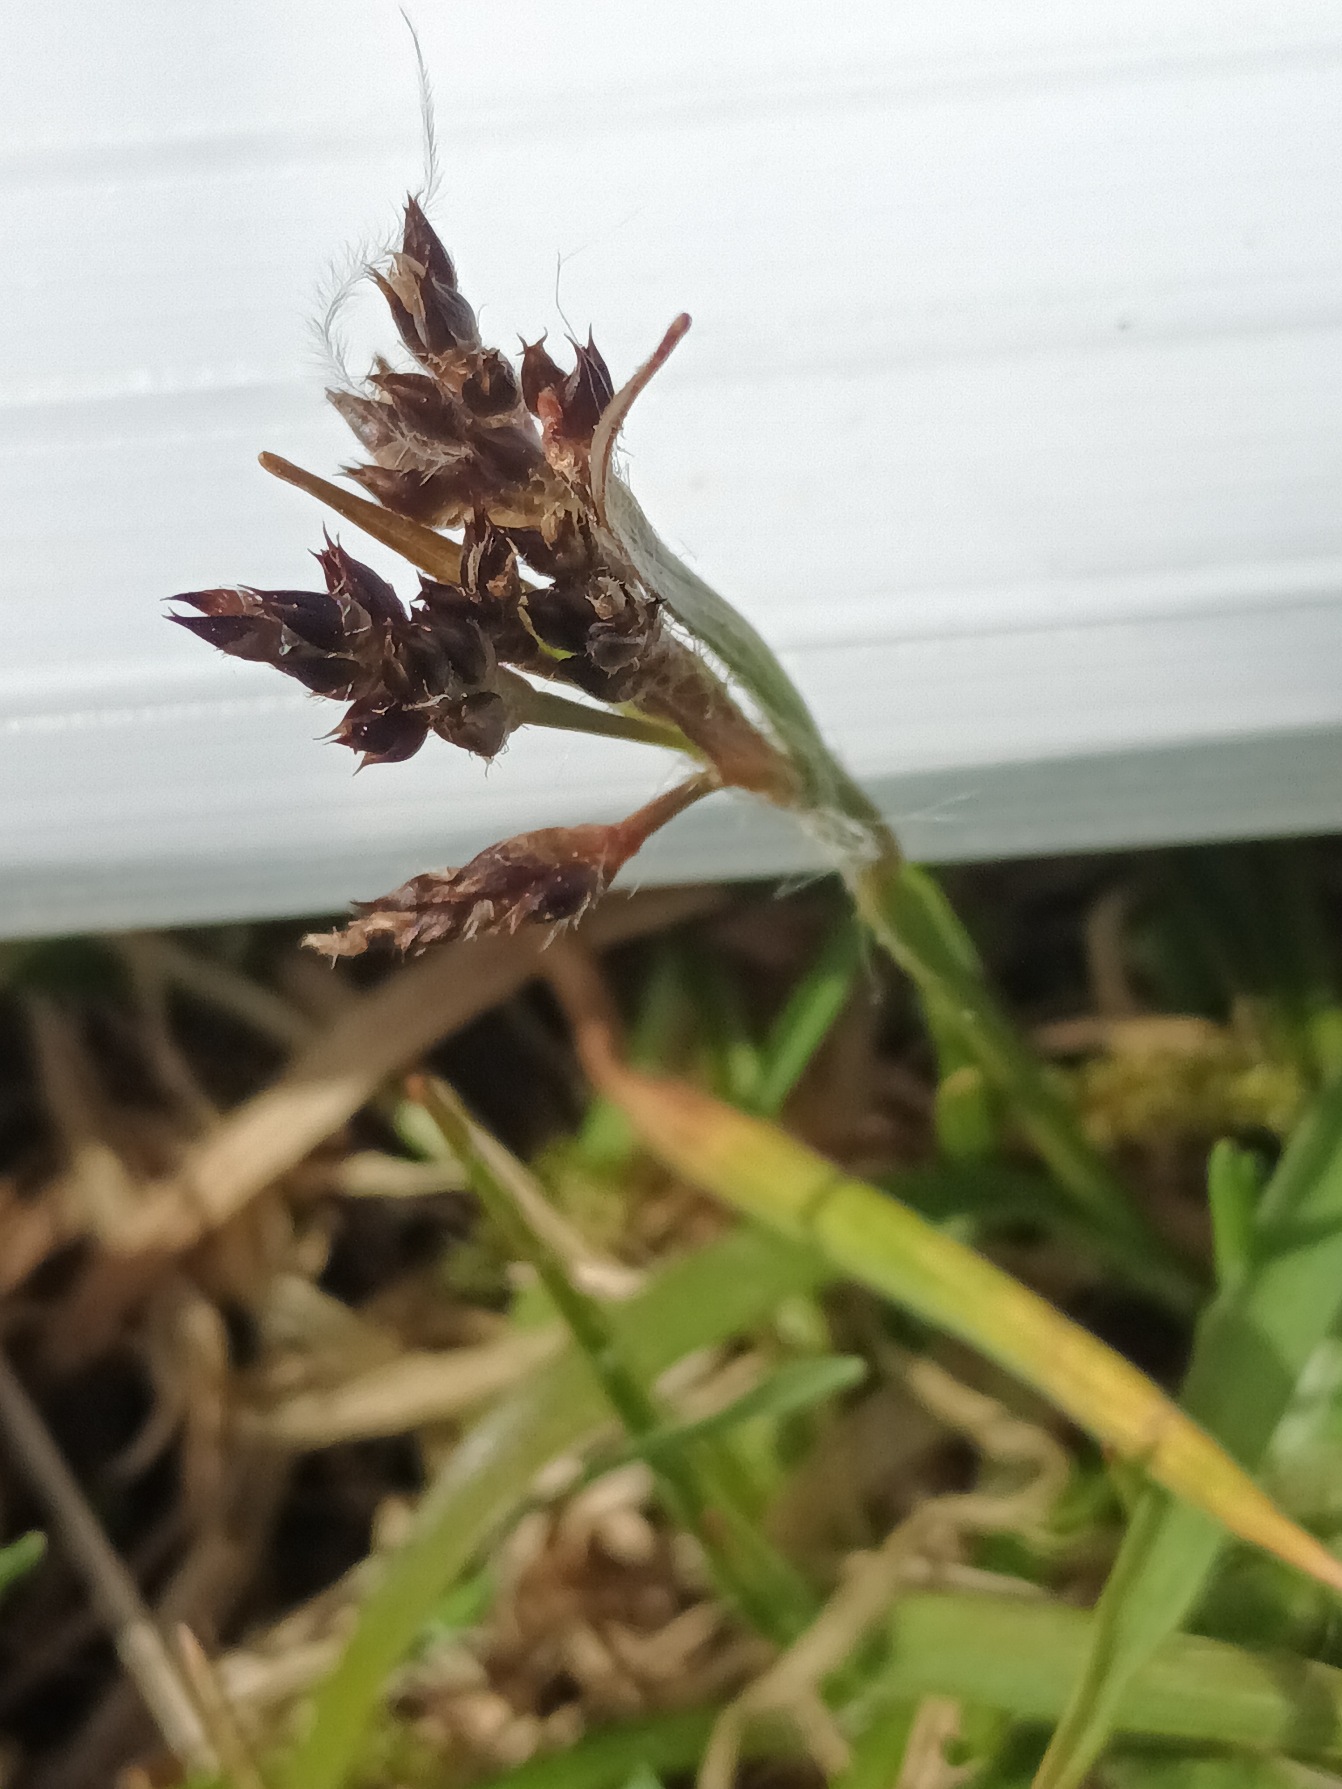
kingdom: Plantae
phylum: Tracheophyta
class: Liliopsida
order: Poales
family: Juncaceae
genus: Luzula
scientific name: Luzula campestris
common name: Mark-frytle
